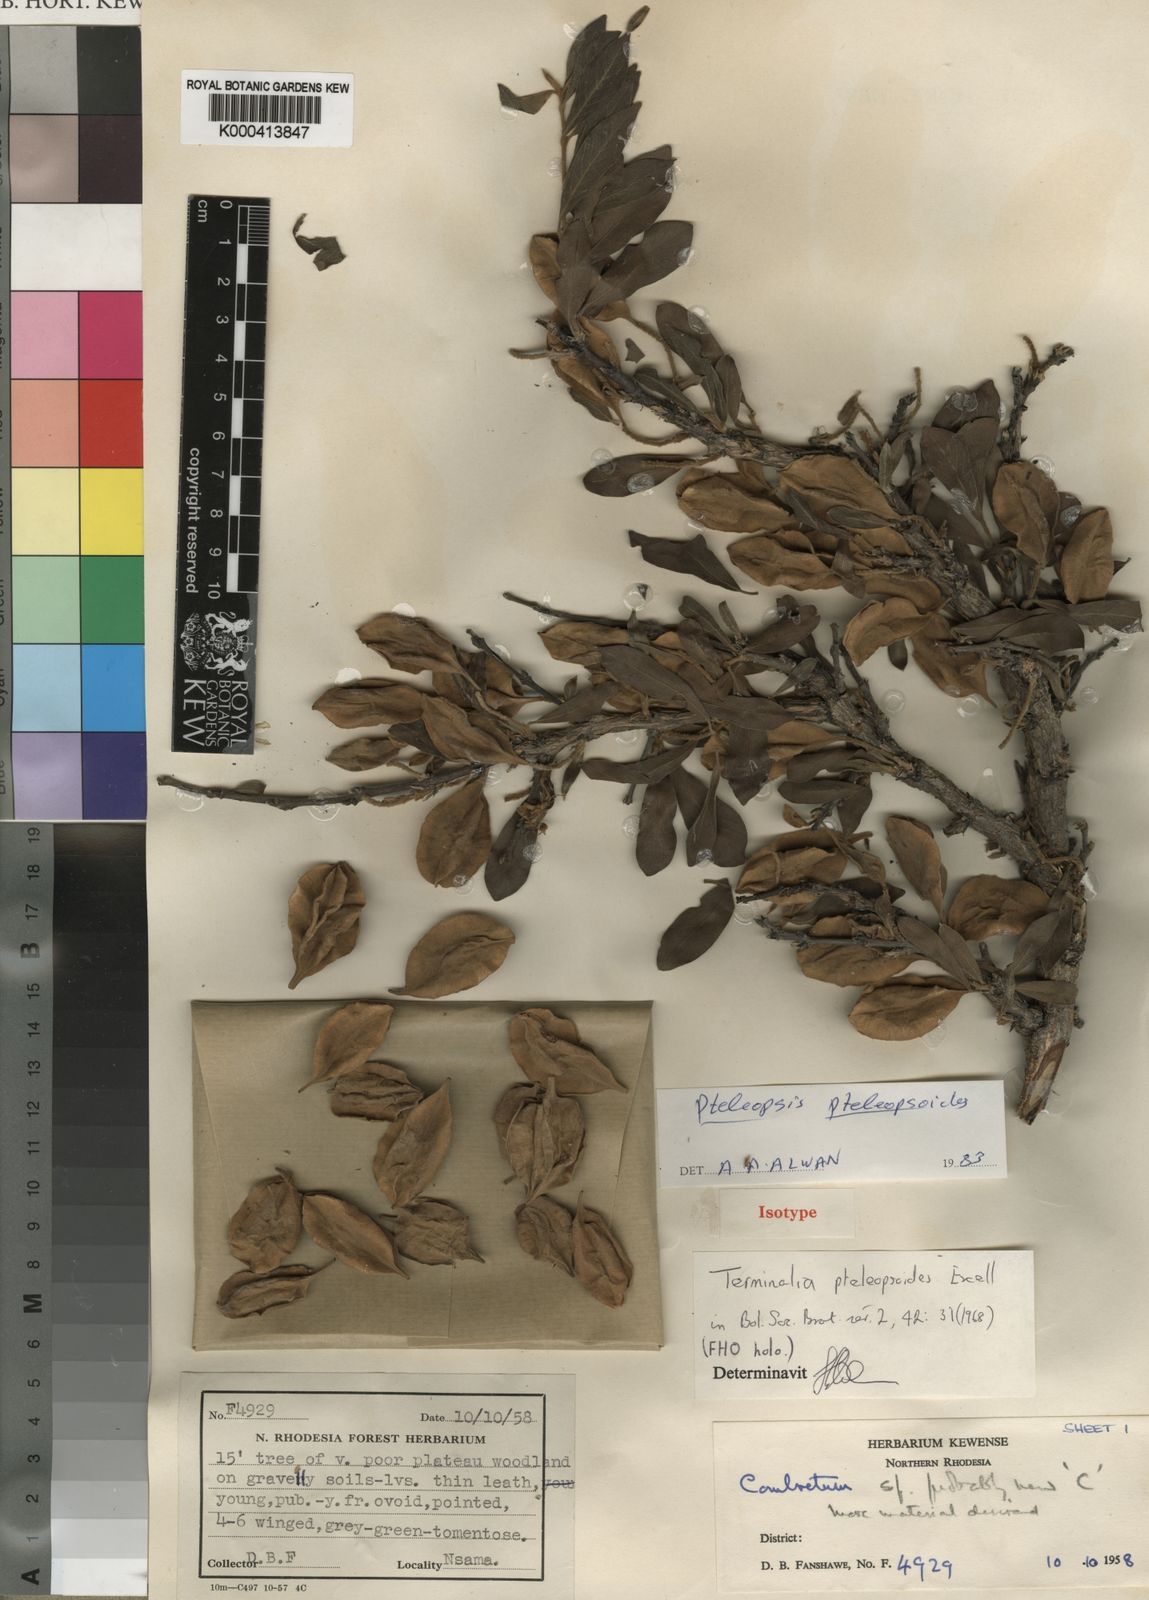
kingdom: Plantae
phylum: Tracheophyta
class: Magnoliopsida
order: Myrtales
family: Combretaceae
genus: Terminalia
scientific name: Terminalia pteleopsoides
